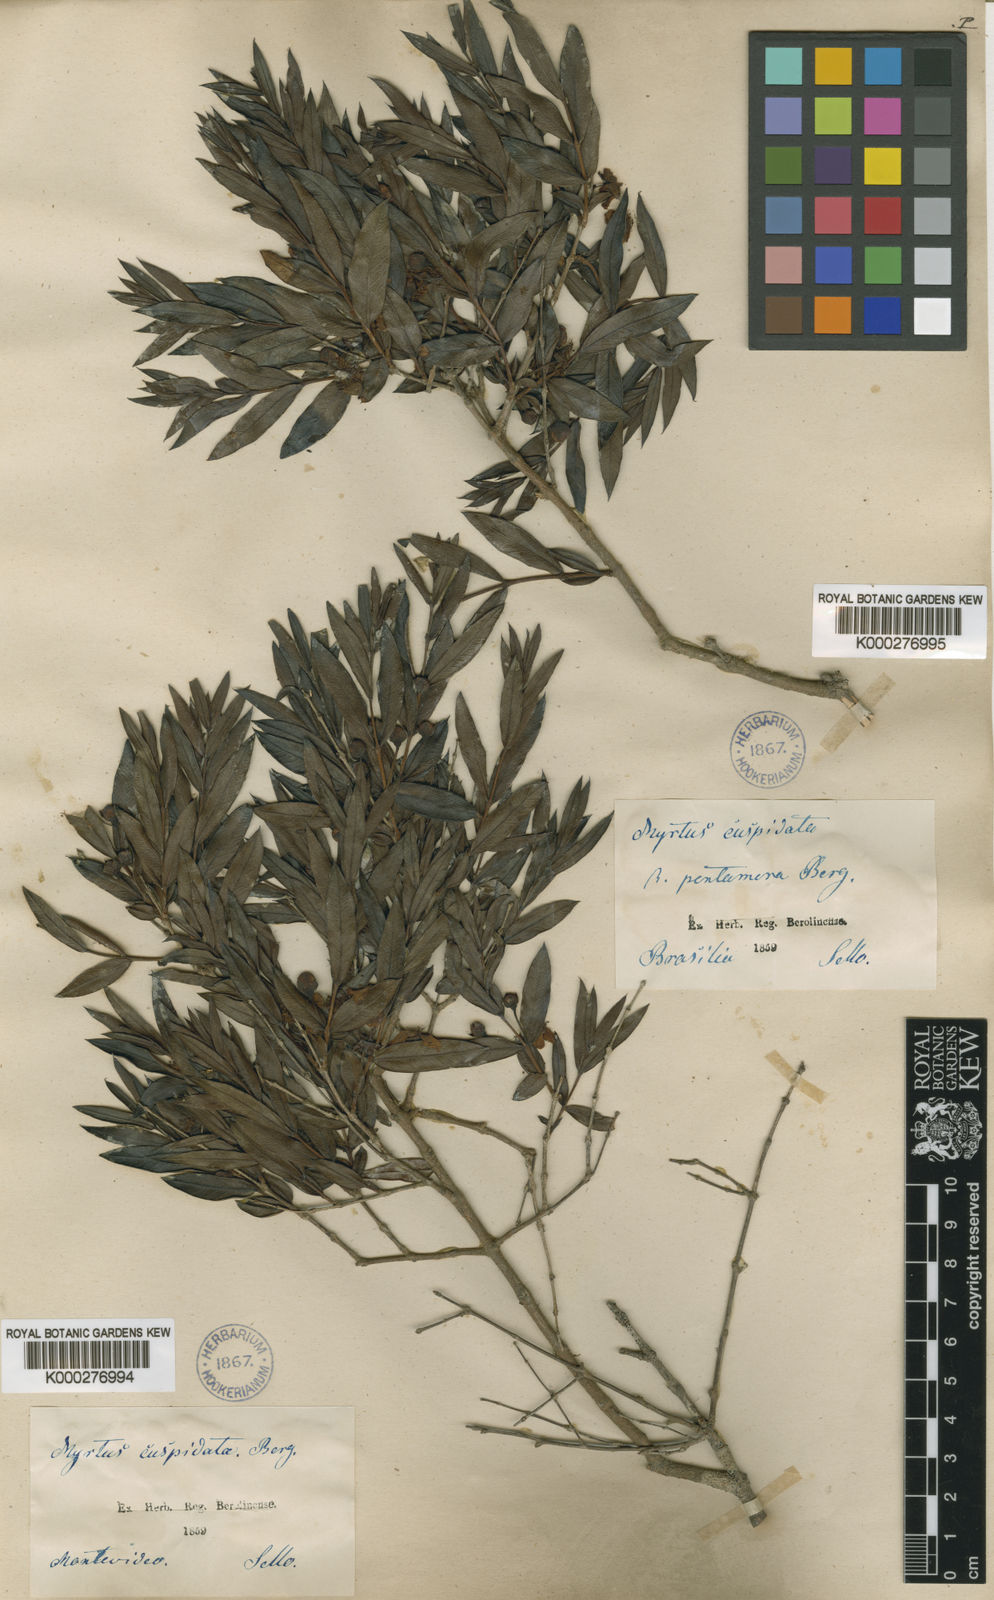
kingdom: Plantae
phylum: Tracheophyta
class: Magnoliopsida
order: Myrtales
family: Myrtaceae
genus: Psidium
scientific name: Psidium salutare
